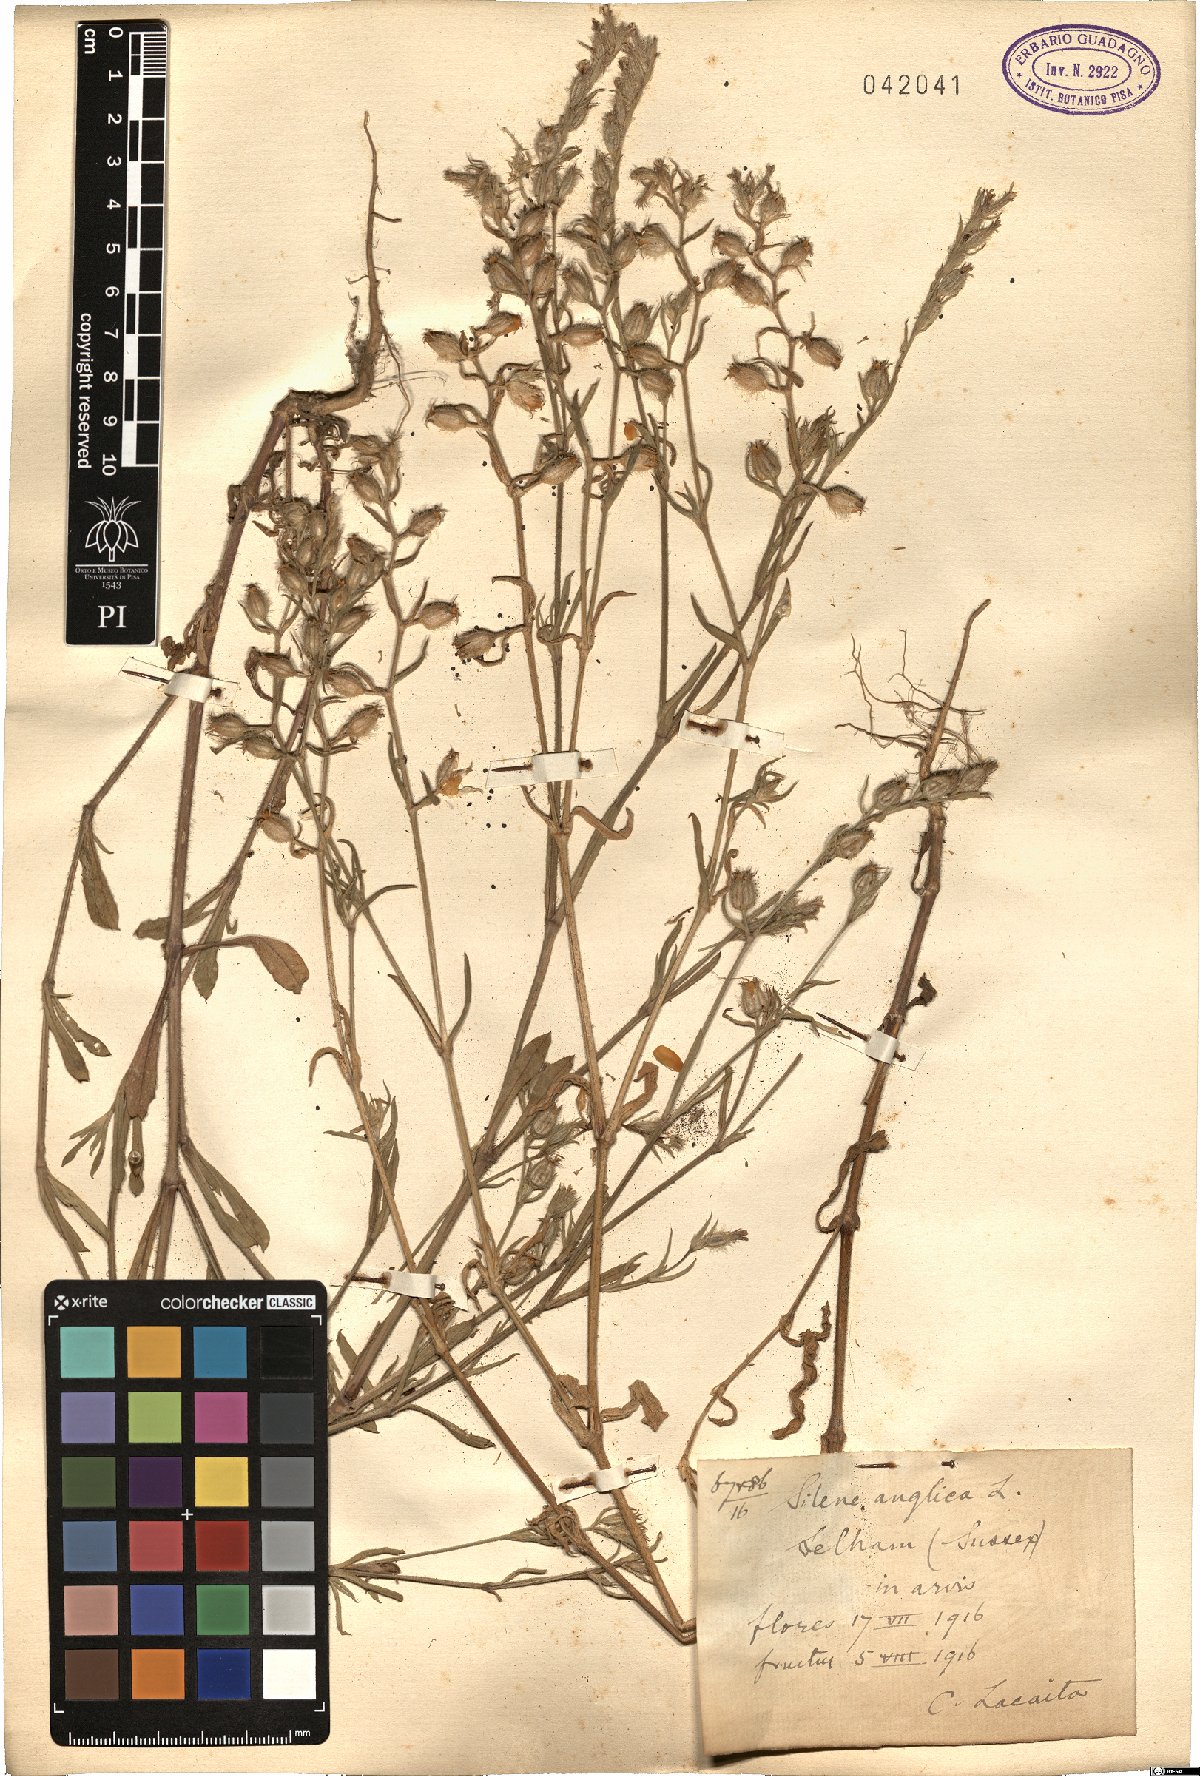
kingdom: Plantae
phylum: Tracheophyta
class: Magnoliopsida
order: Caryophyllales
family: Caryophyllaceae
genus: Silene
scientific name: Silene gallica
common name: Small-flowered catchfly
